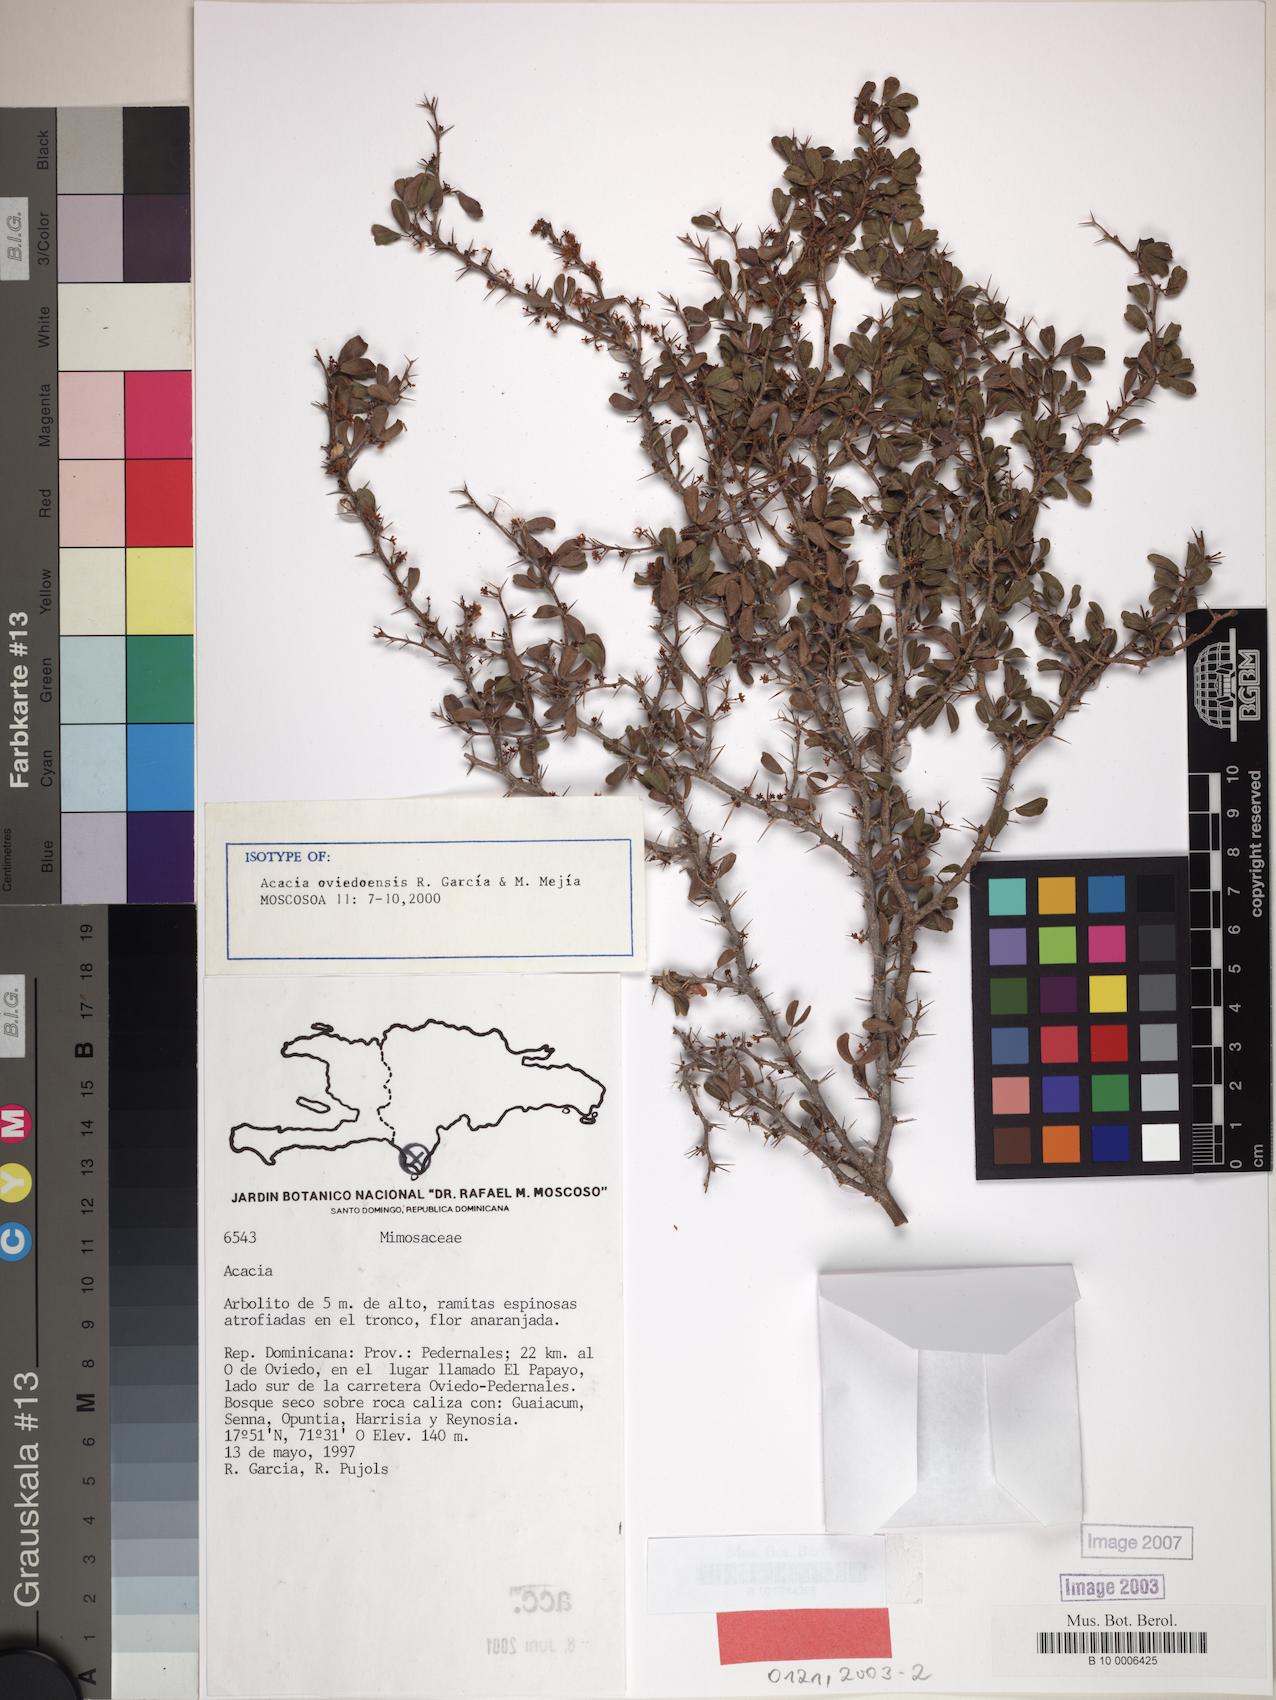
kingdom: Plantae
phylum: Tracheophyta
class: Magnoliopsida
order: Fabales
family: Fabaceae
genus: Vachellia
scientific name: Vachellia oviedoensis
